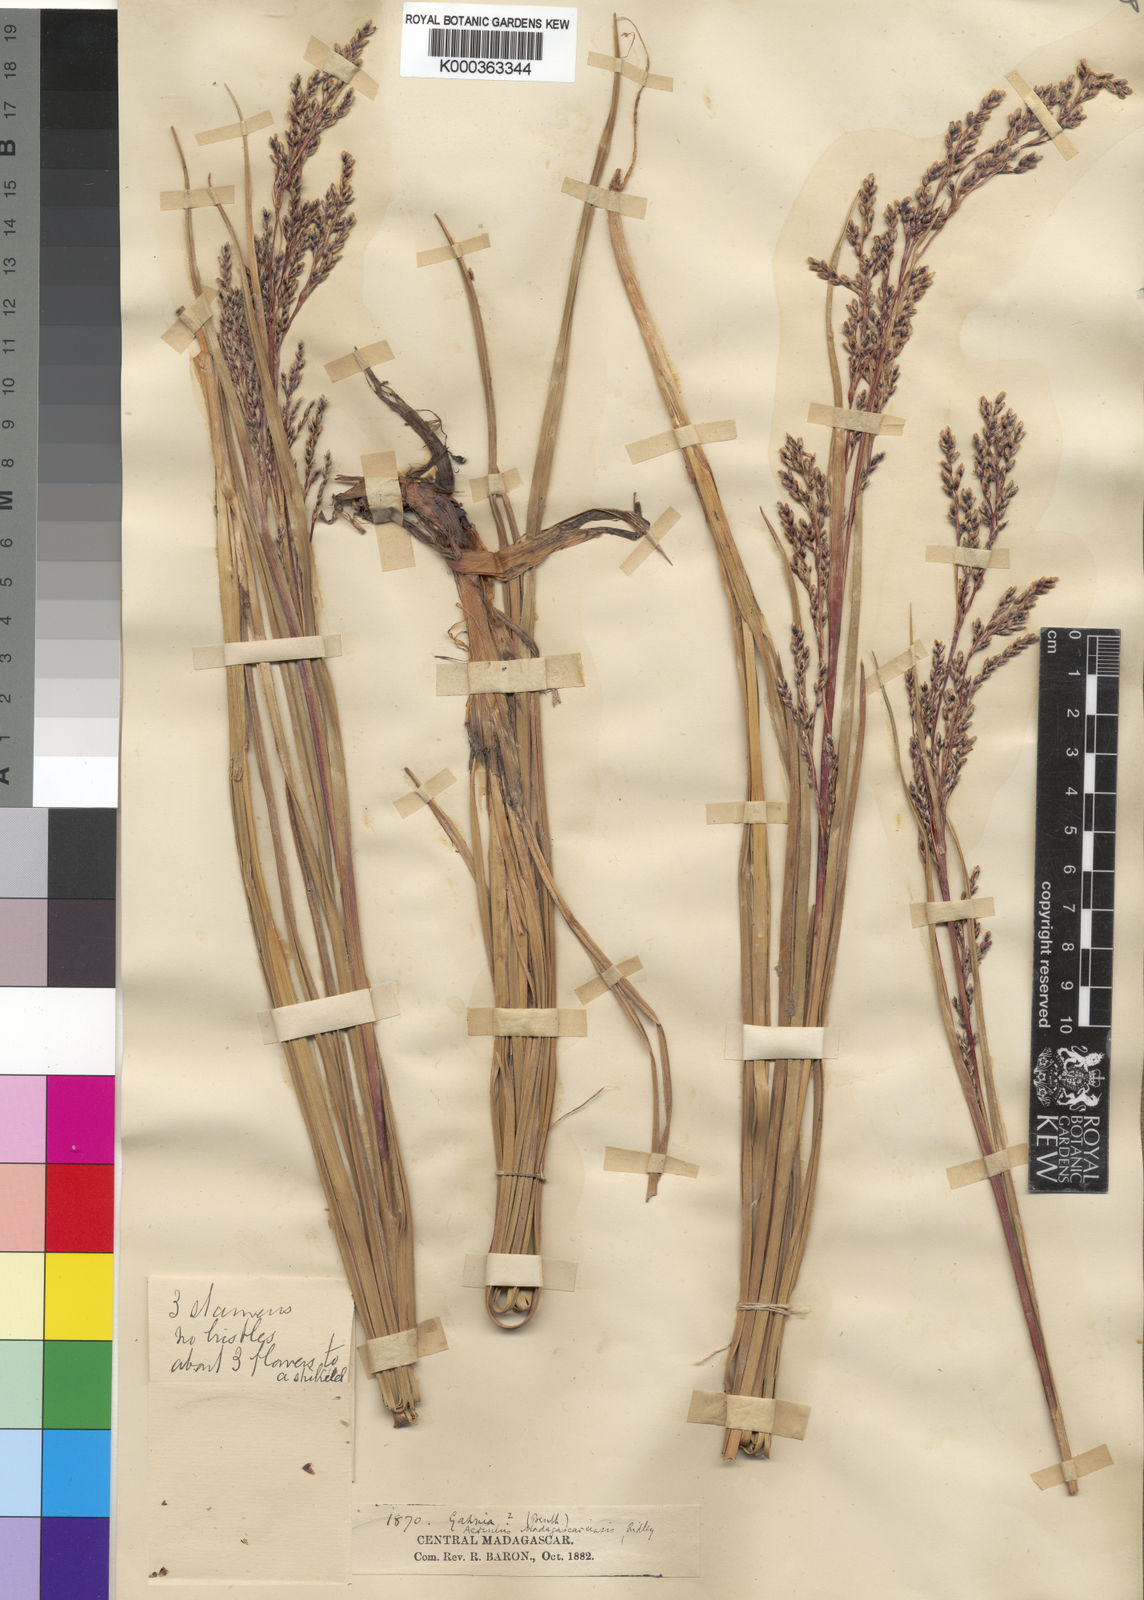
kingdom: Plantae
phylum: Tracheophyta
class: Liliopsida
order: Poales
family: Cyperaceae
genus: Scleria
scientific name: Scleria
